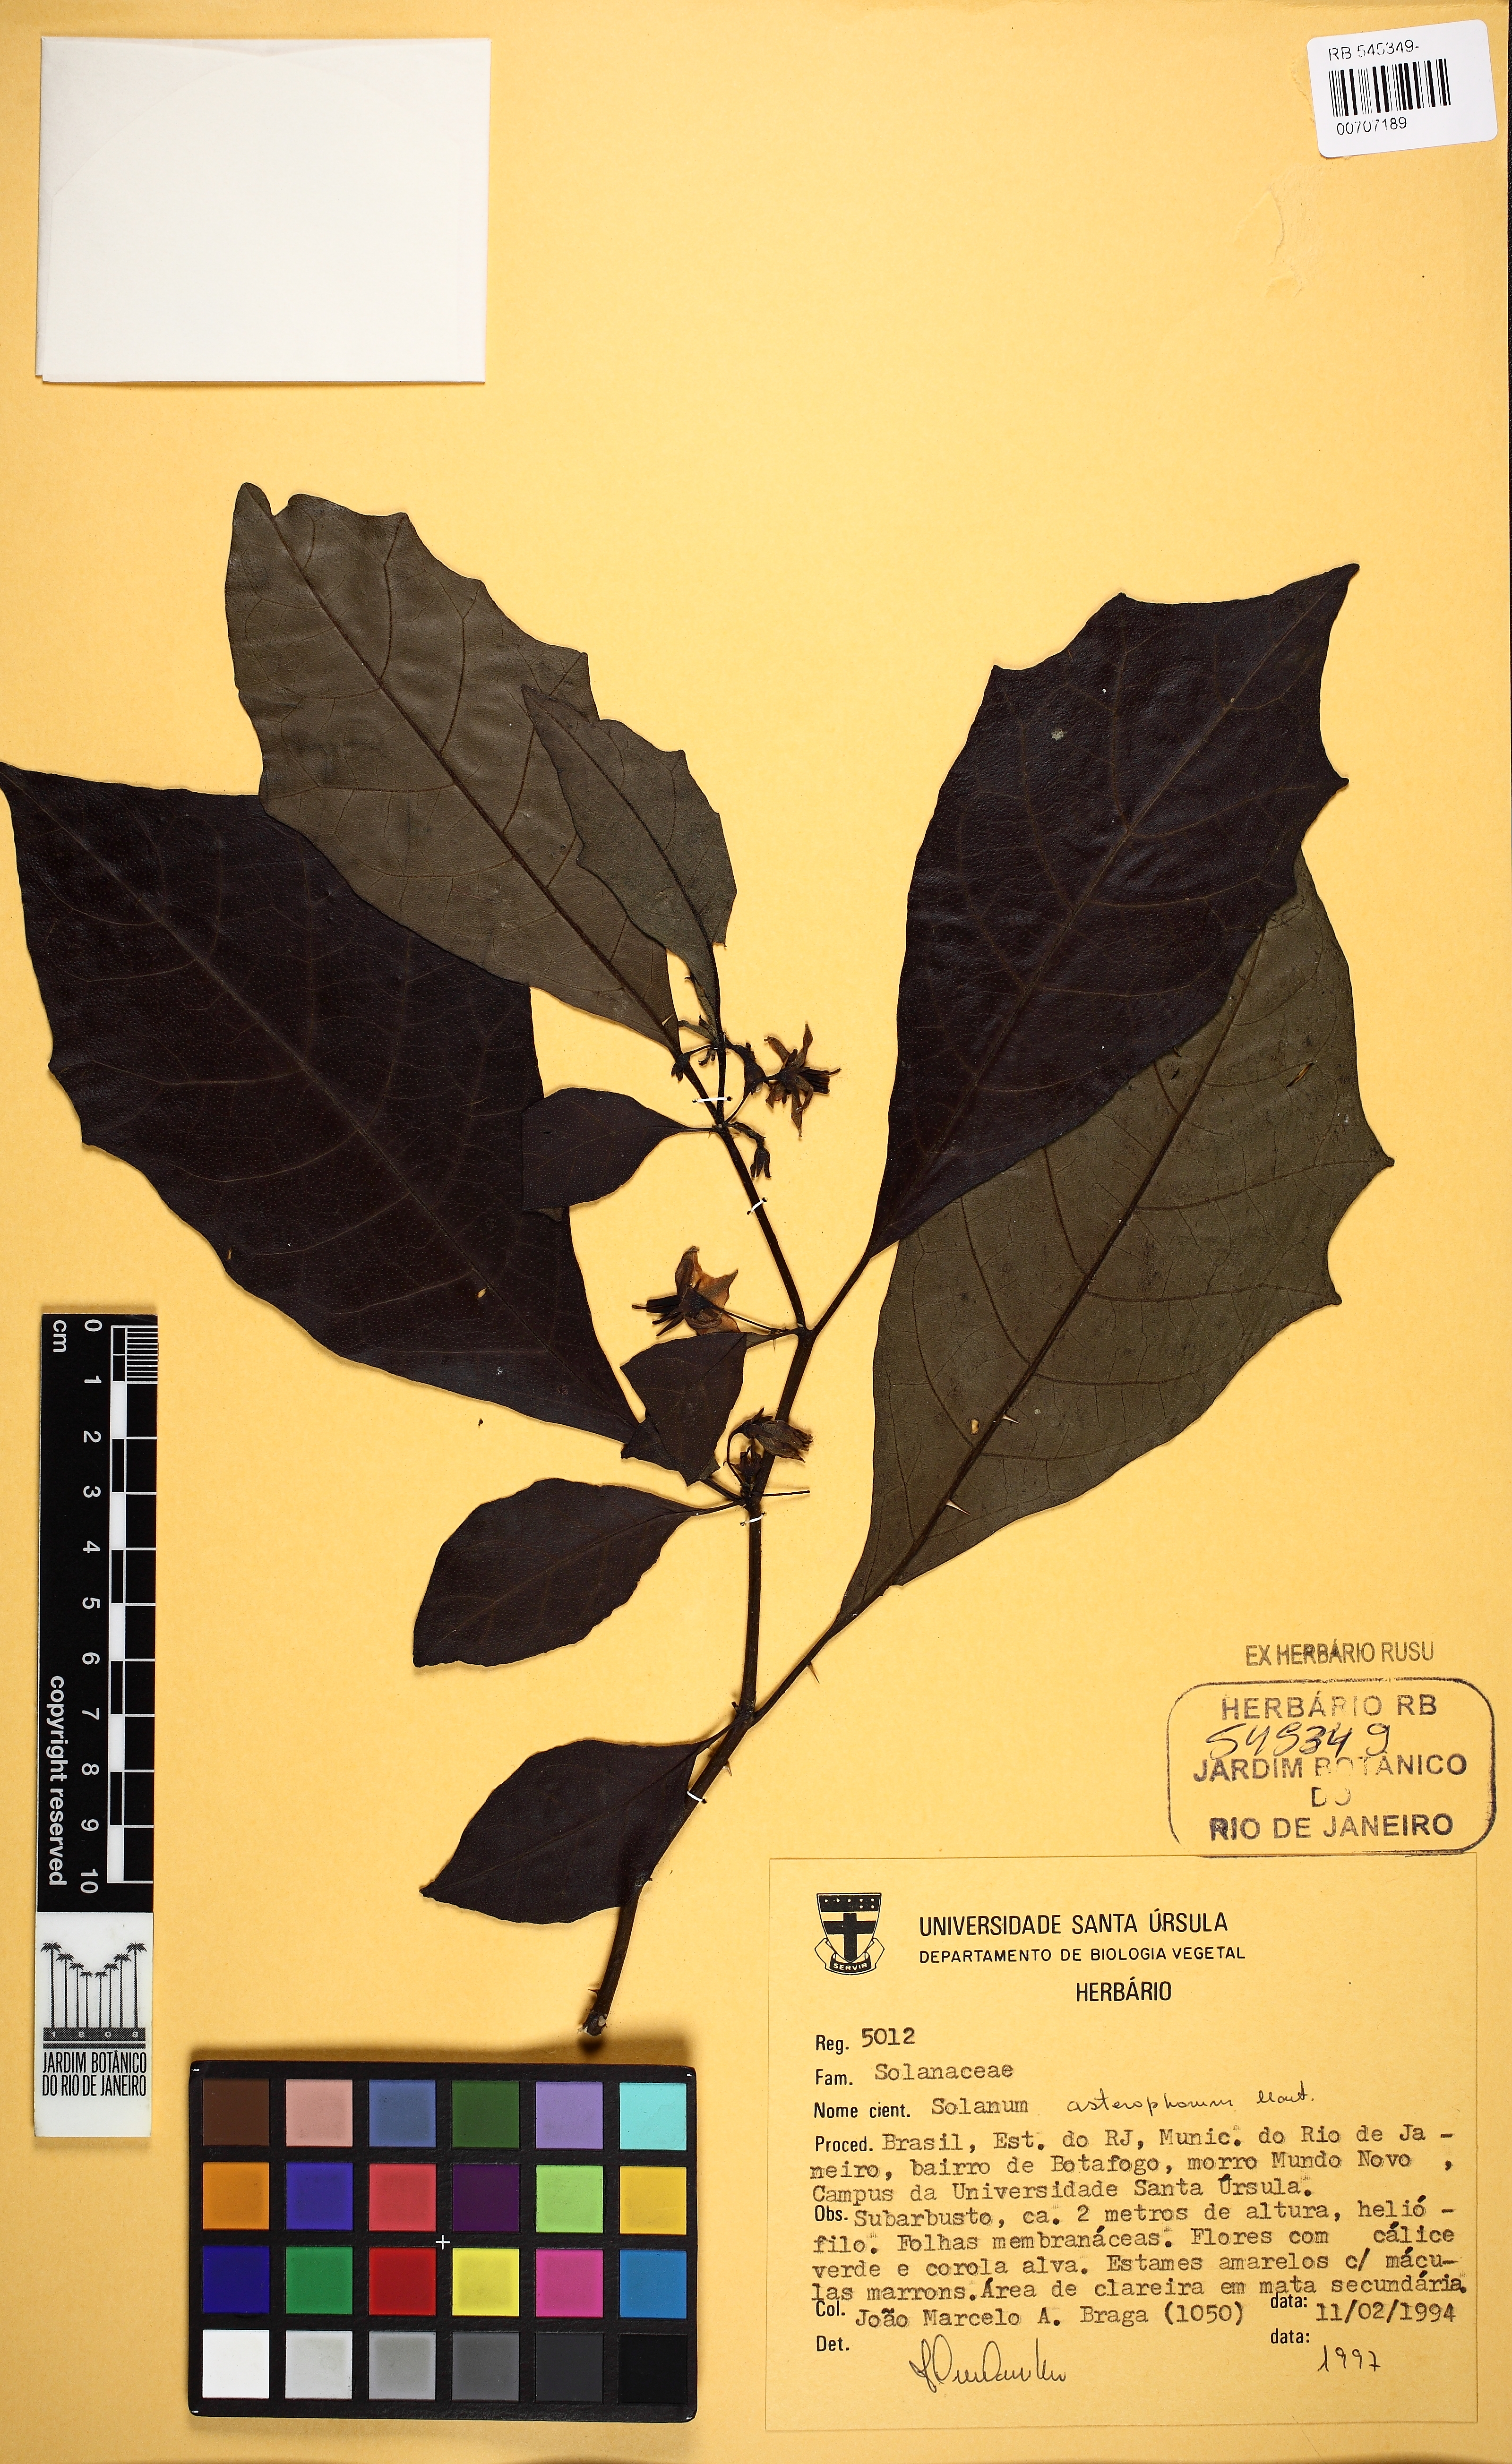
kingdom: Plantae
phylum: Tracheophyta
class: Magnoliopsida
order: Solanales
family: Solanaceae
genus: Solanum
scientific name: Solanum asterophorum
